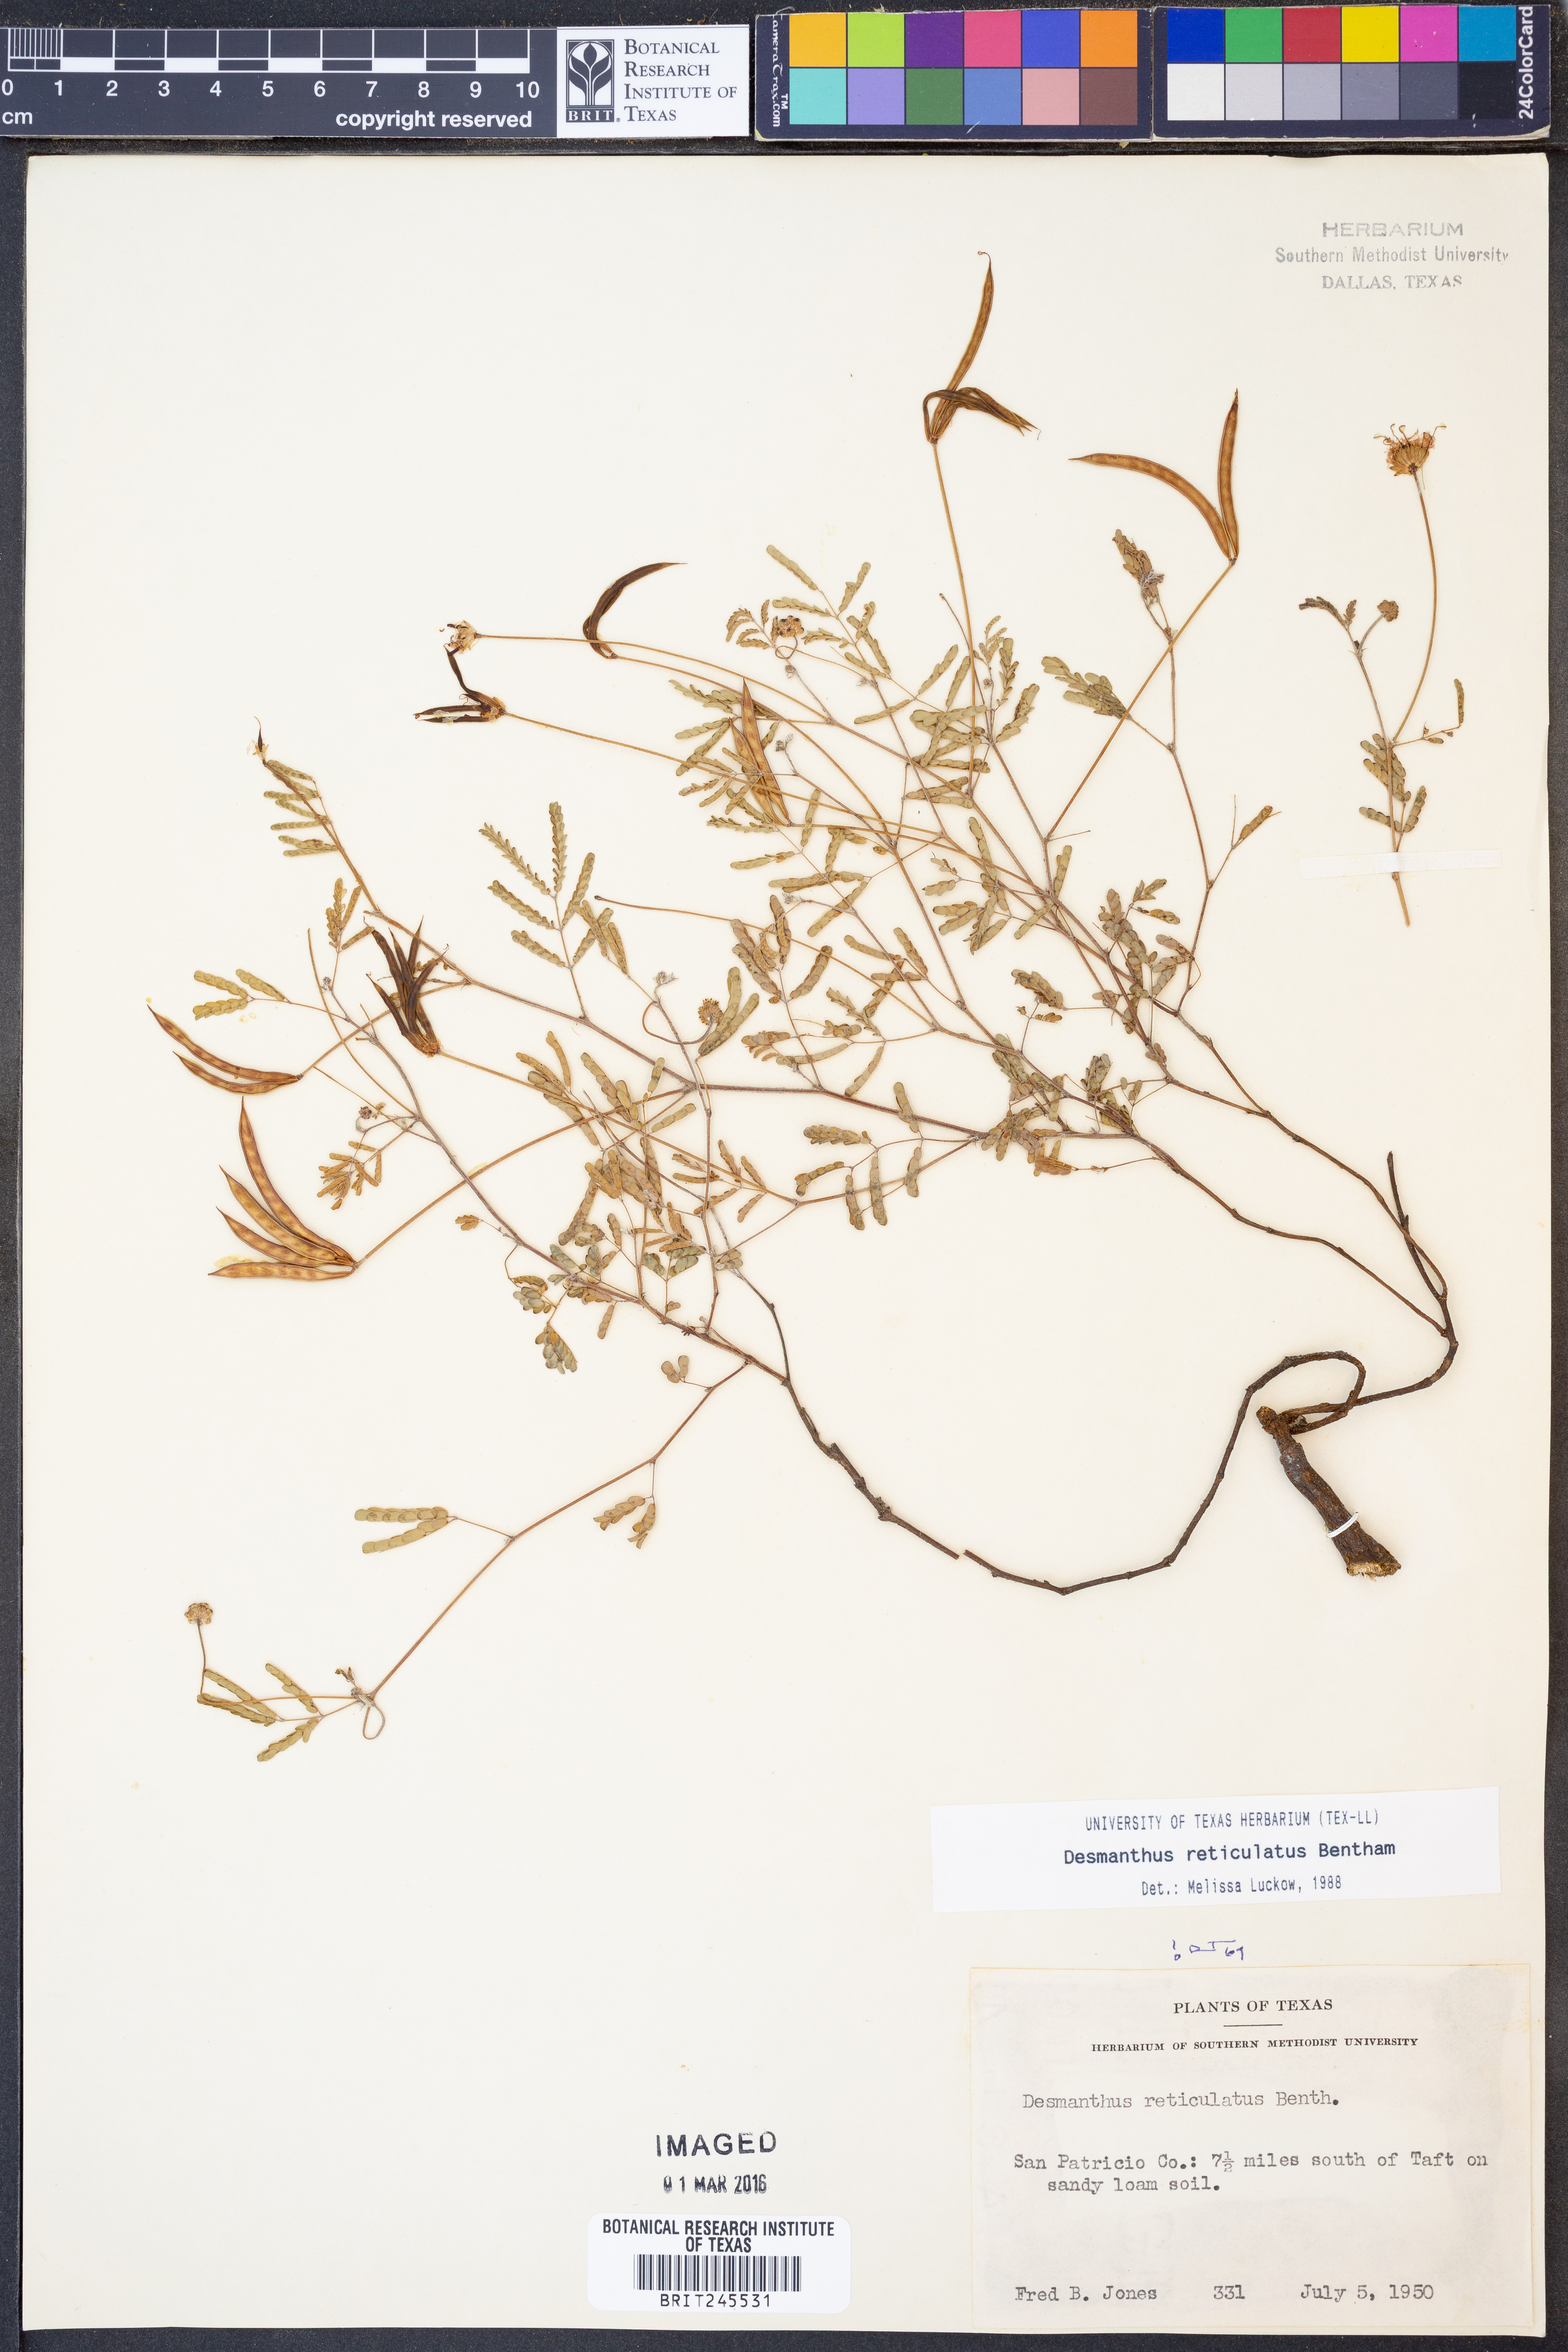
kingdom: Plantae
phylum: Tracheophyta
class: Magnoliopsida
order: Fabales
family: Fabaceae
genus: Desmanthus
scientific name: Desmanthus reticulatus
